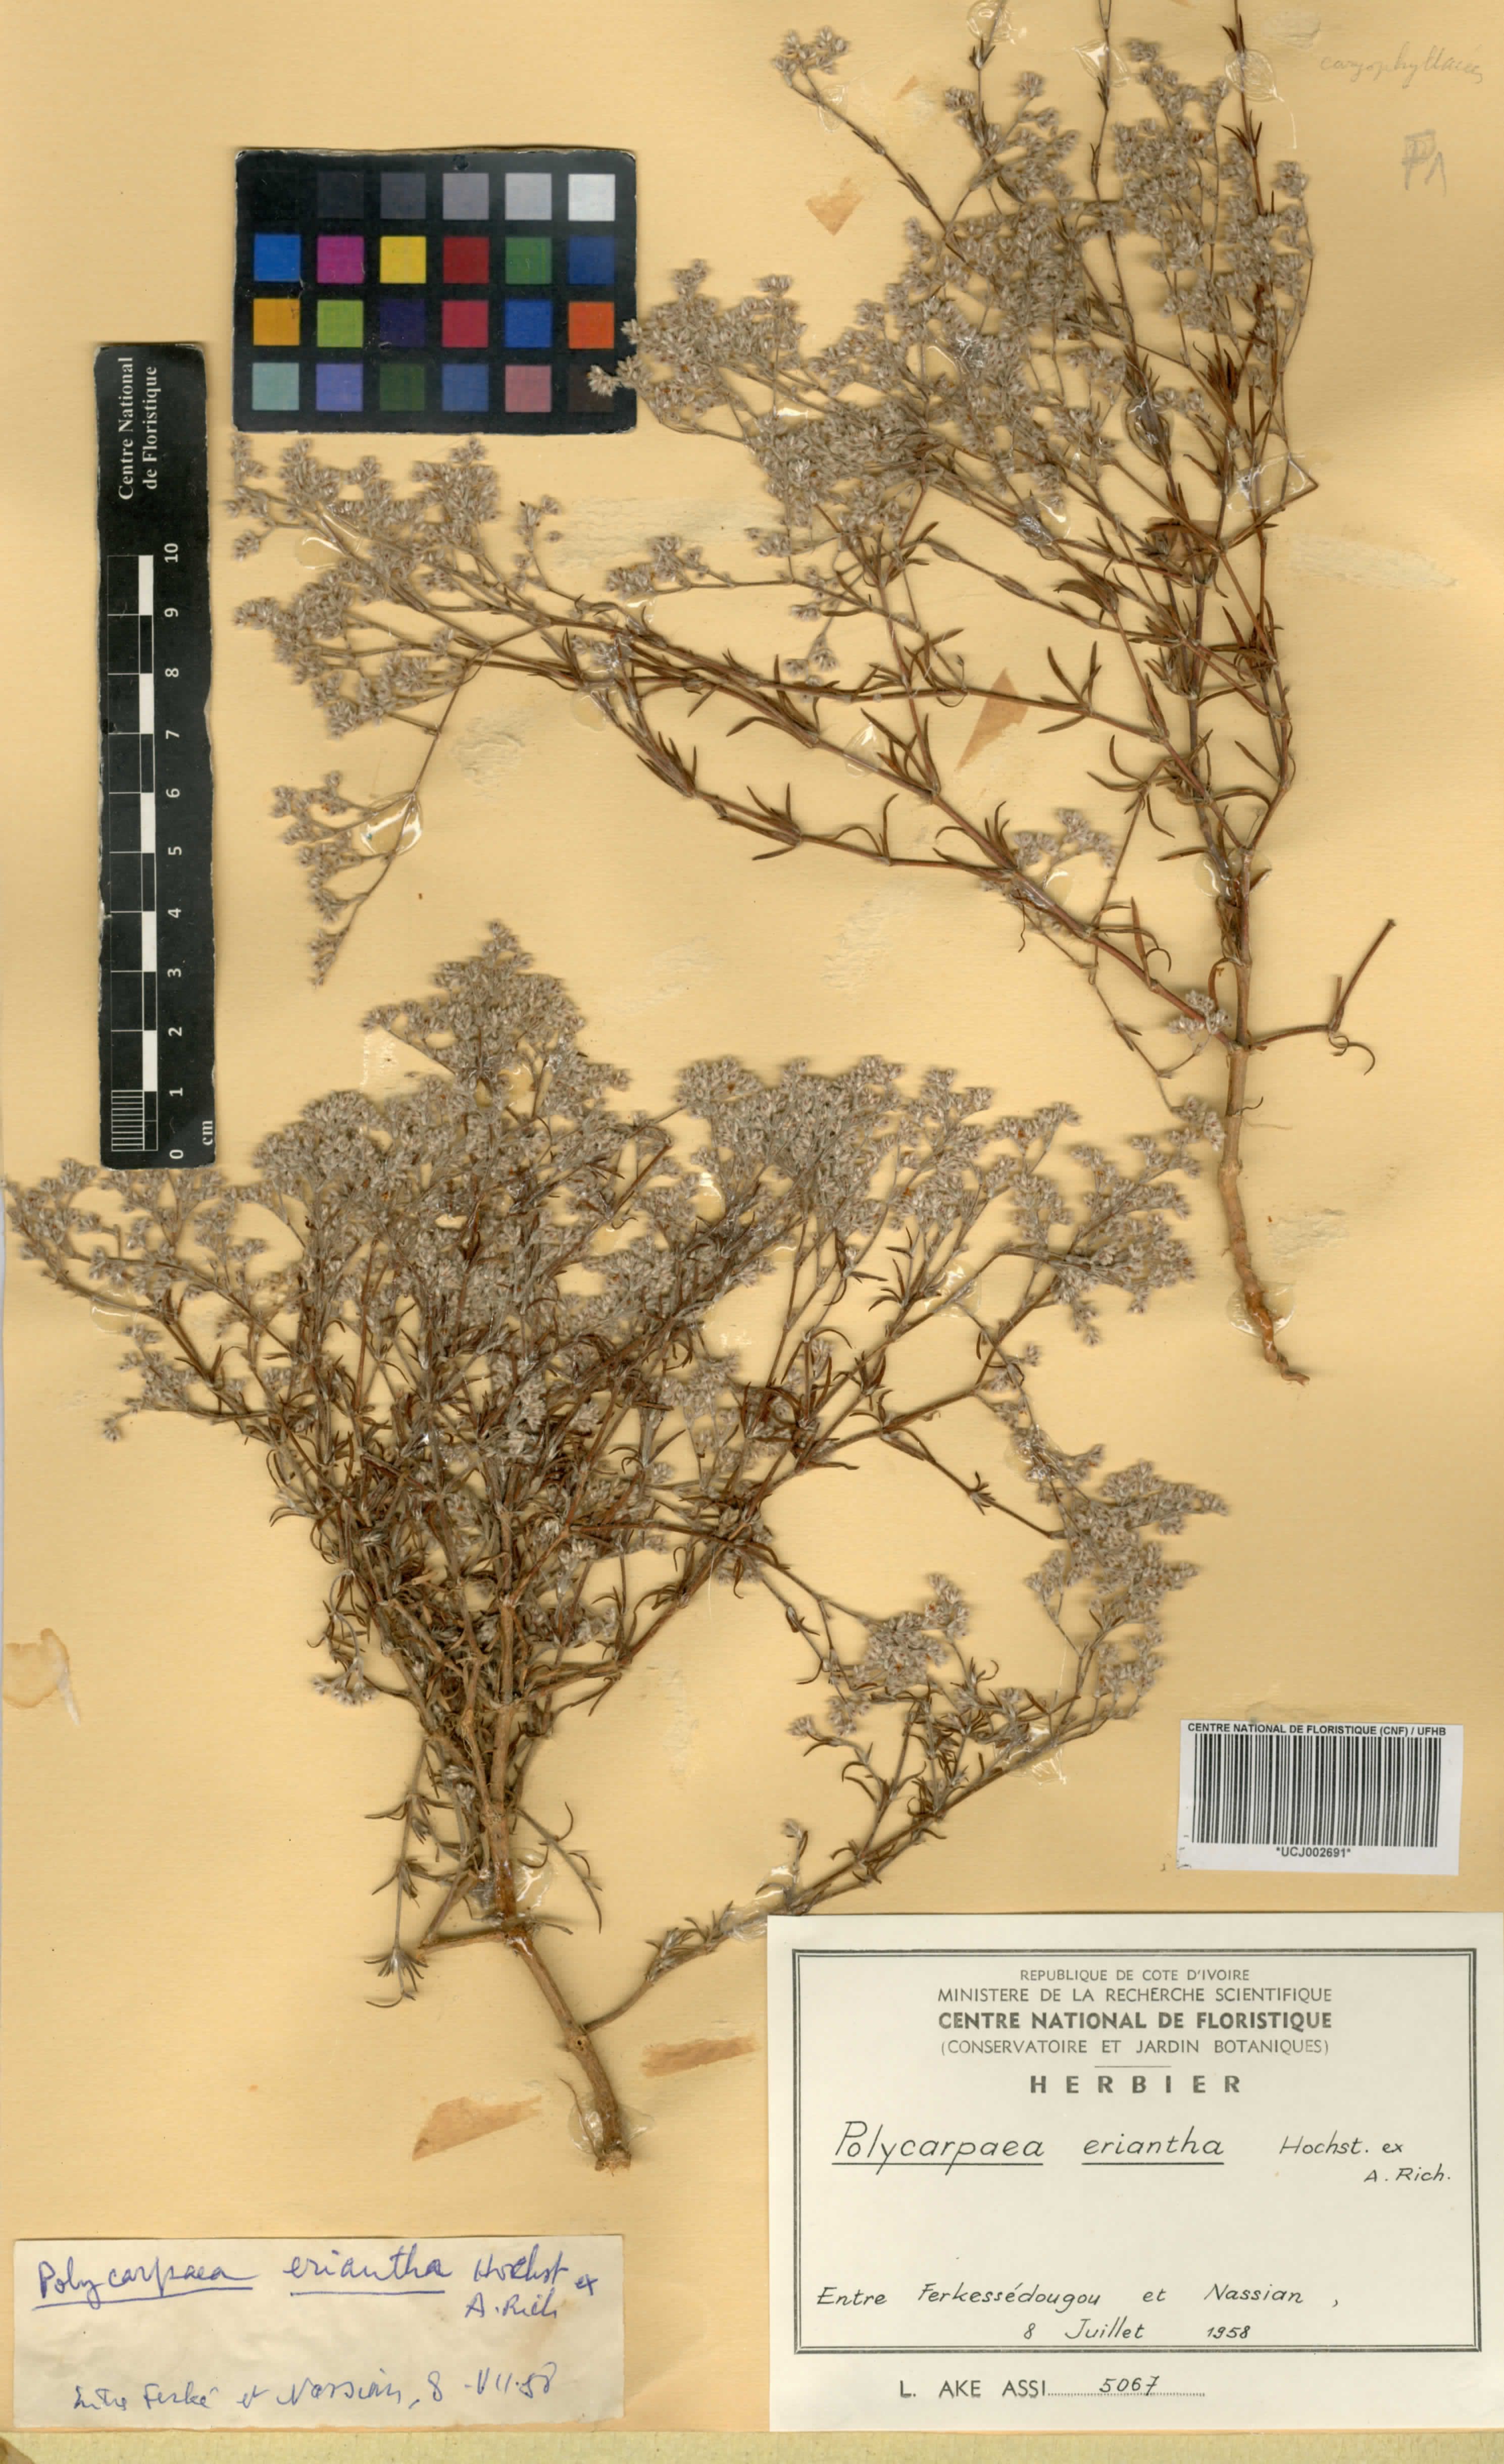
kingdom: Plantae
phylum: Tracheophyta
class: Magnoliopsida
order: Caryophyllales
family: Caryophyllaceae
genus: Polycarpaea
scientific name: Polycarpaea eriantha
